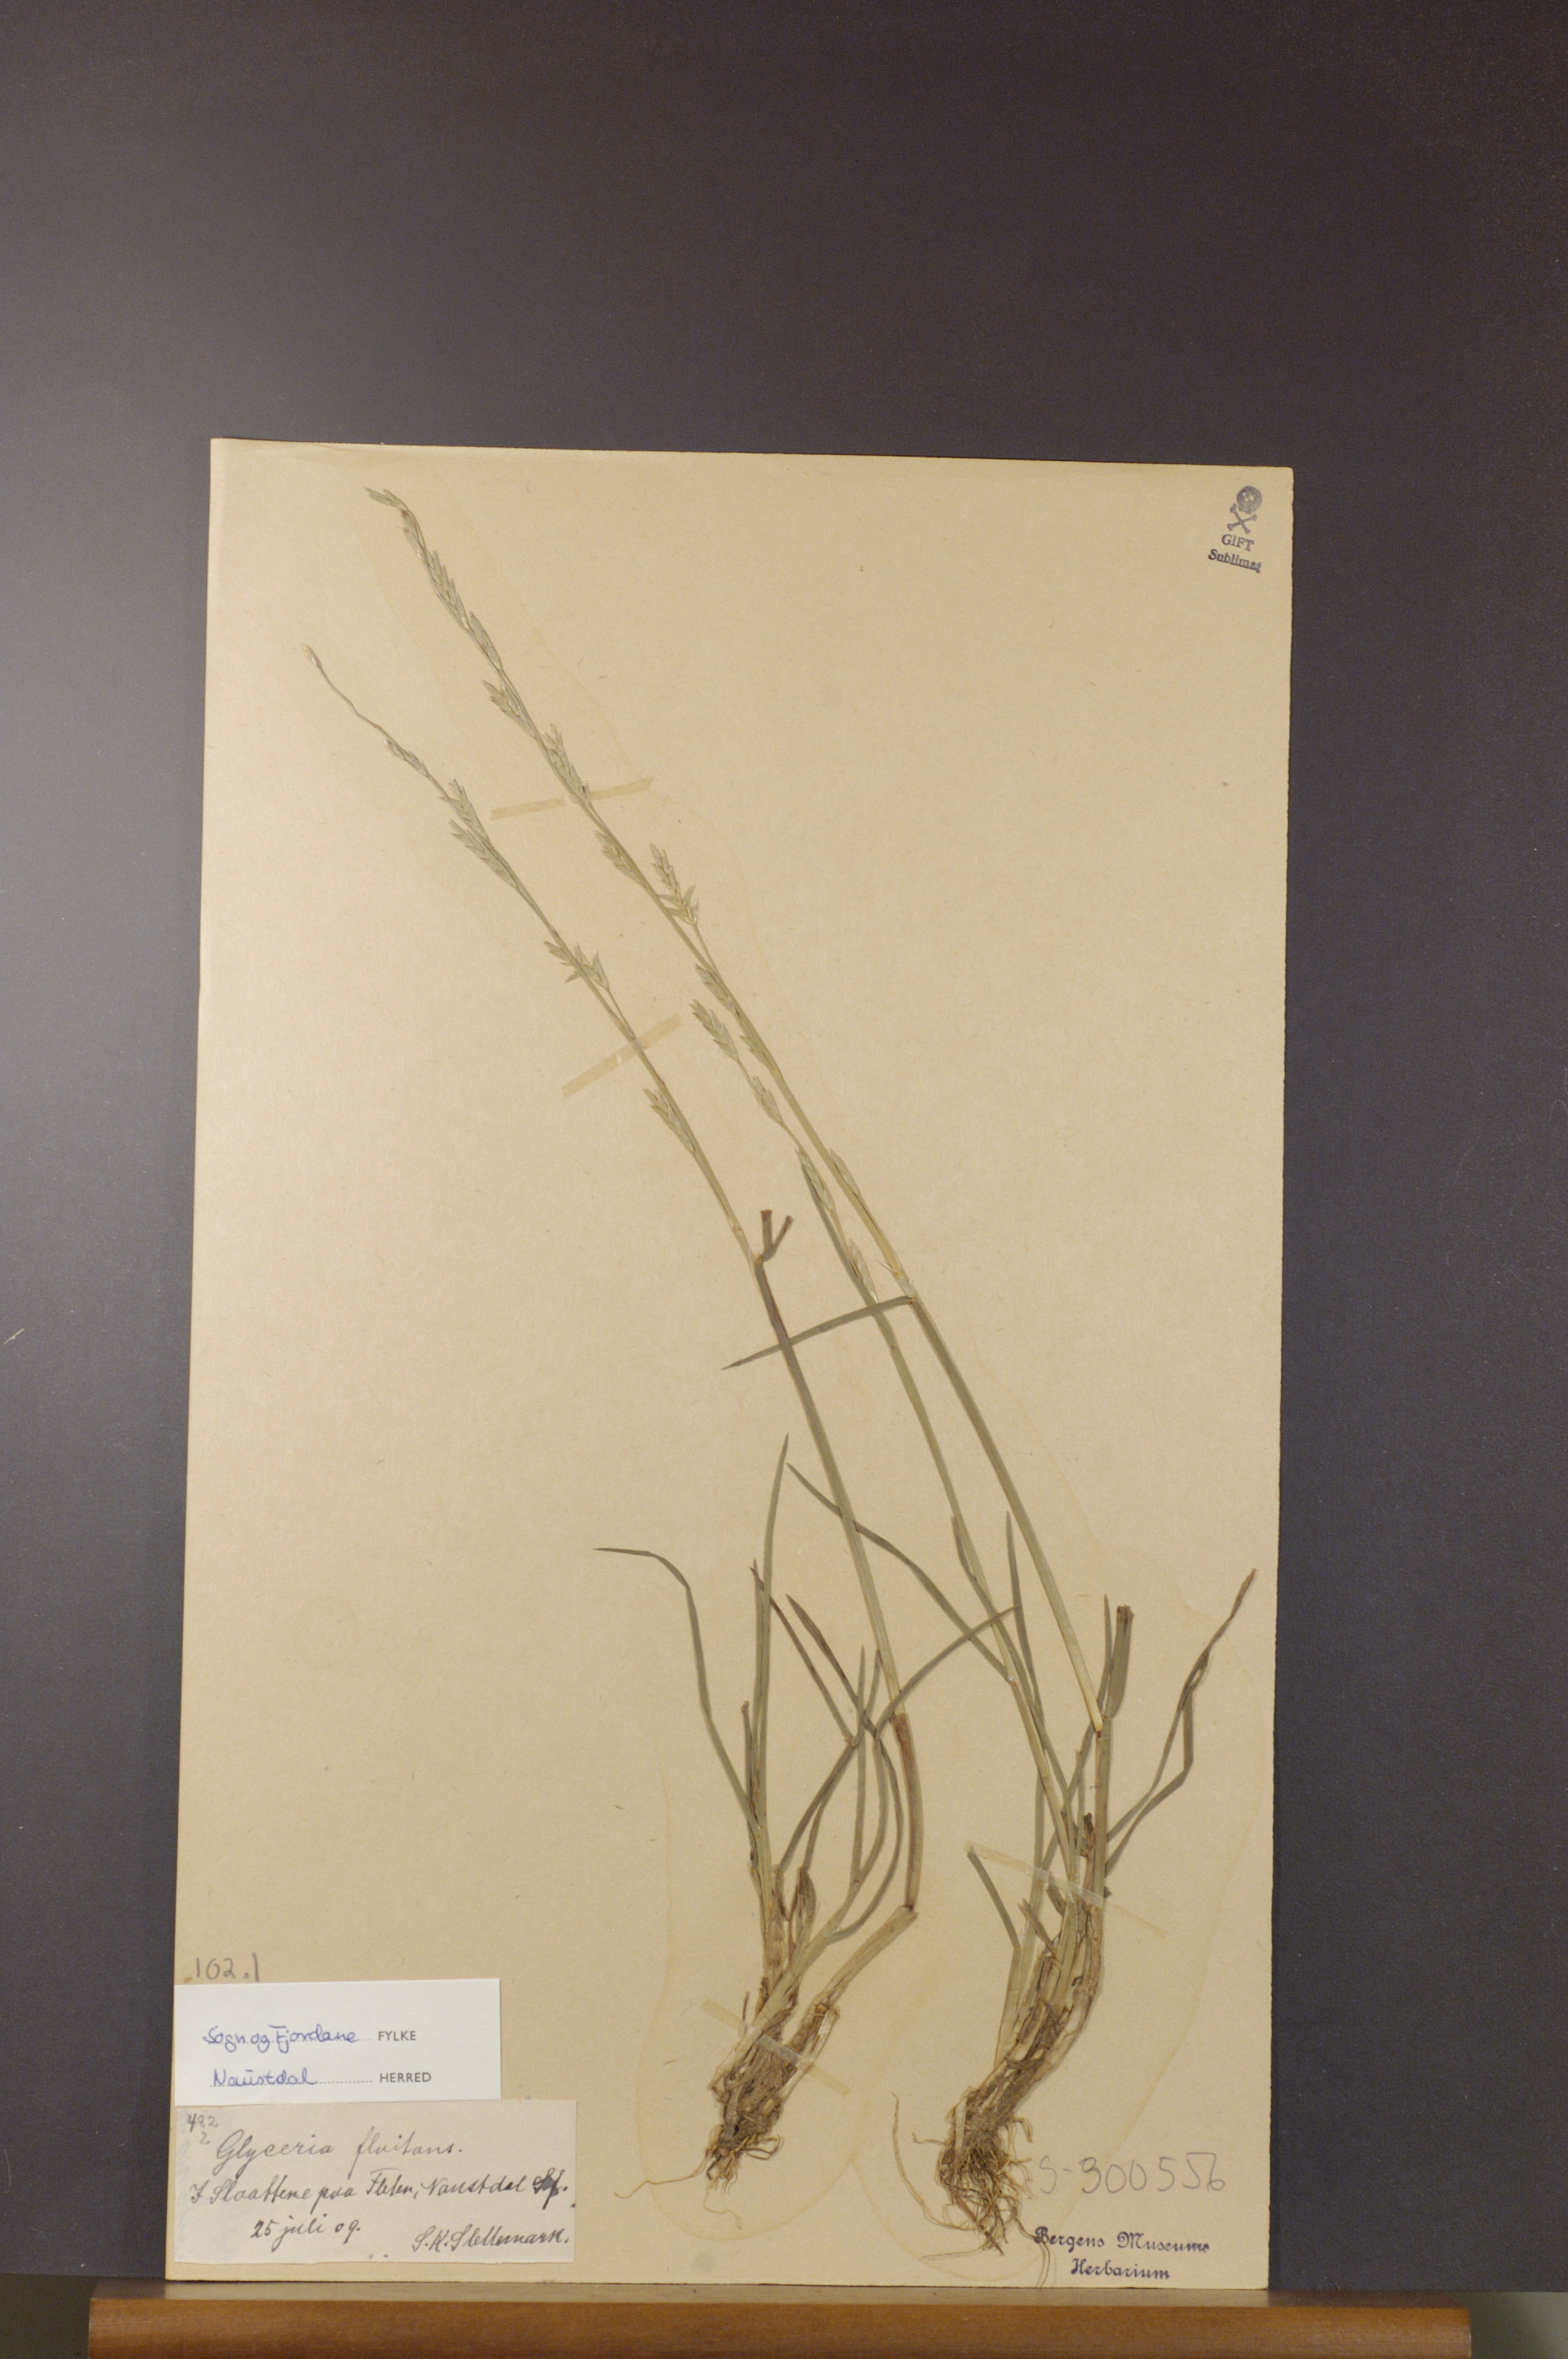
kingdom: Plantae
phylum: Tracheophyta
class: Liliopsida
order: Poales
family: Poaceae
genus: Glyceria
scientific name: Glyceria fluitans
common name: Floating sweet-grass
